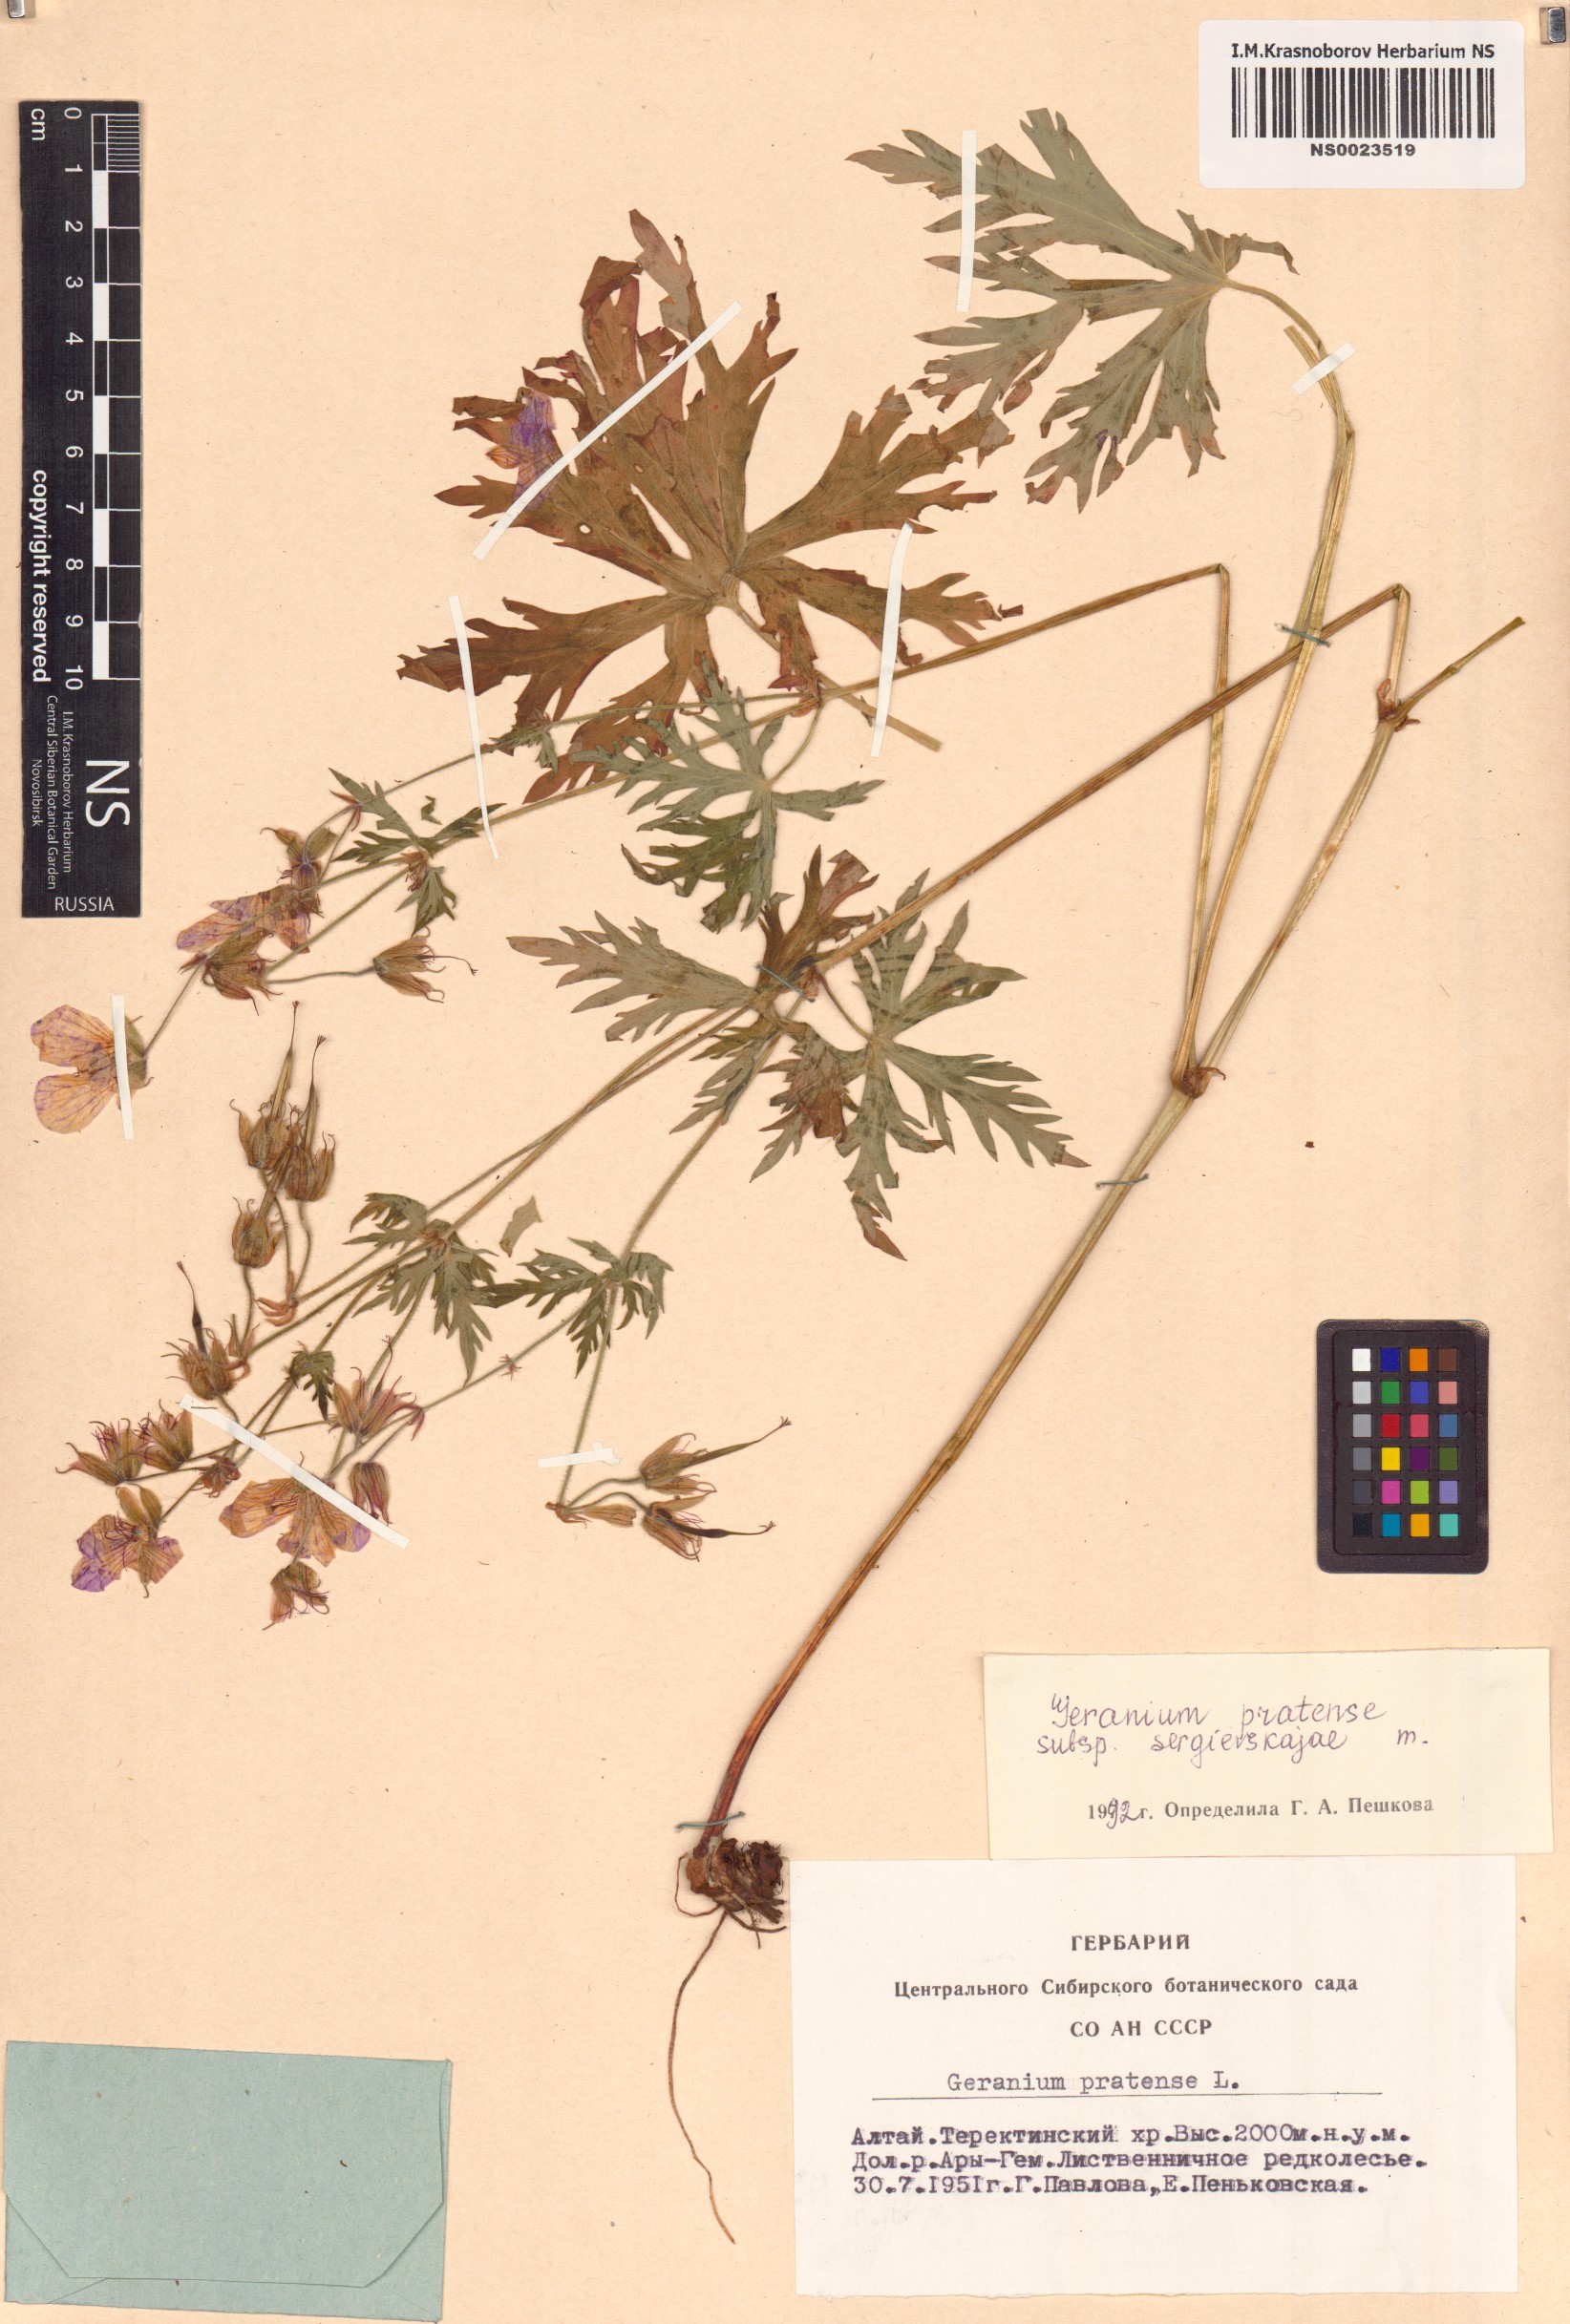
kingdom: Plantae
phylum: Tracheophyta
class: Magnoliopsida
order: Geraniales
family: Geraniaceae
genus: Geranium
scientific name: Geranium pratense
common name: Meadow crane's-bill
